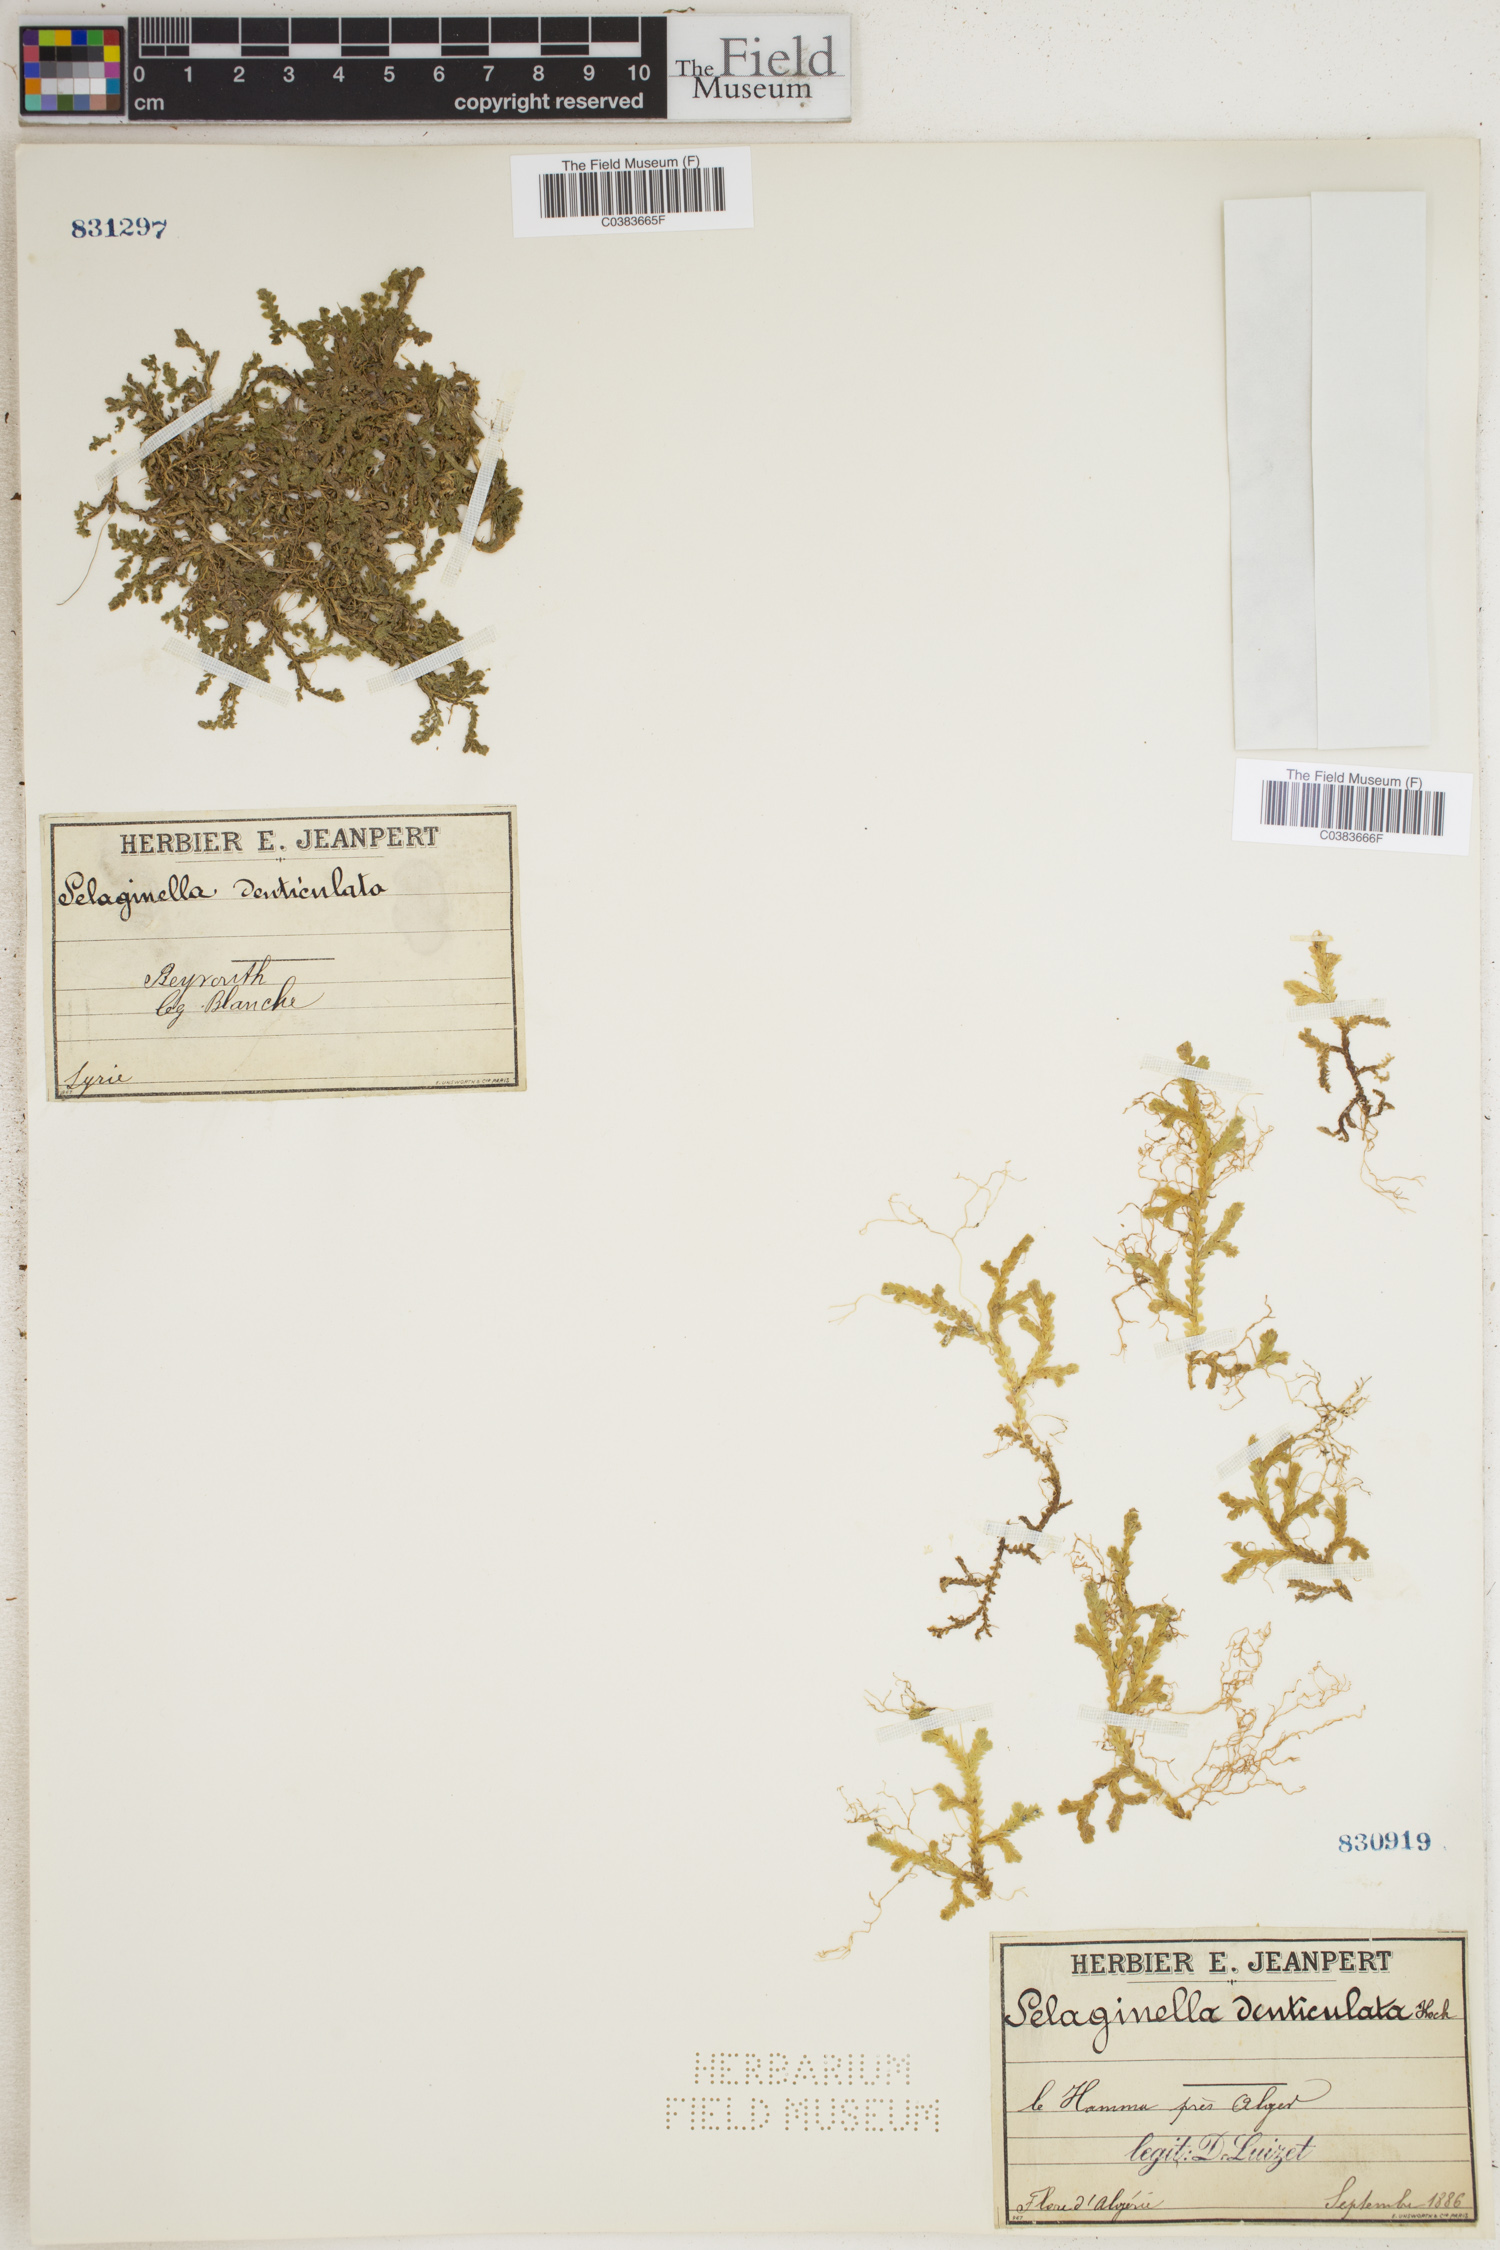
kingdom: Plantae
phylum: Tracheophyta
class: Lycopodiopsida
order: Selaginellales
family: Selaginellaceae
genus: Selaginella
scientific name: Selaginella denticulata
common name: Toothed-leaved clubmoss
